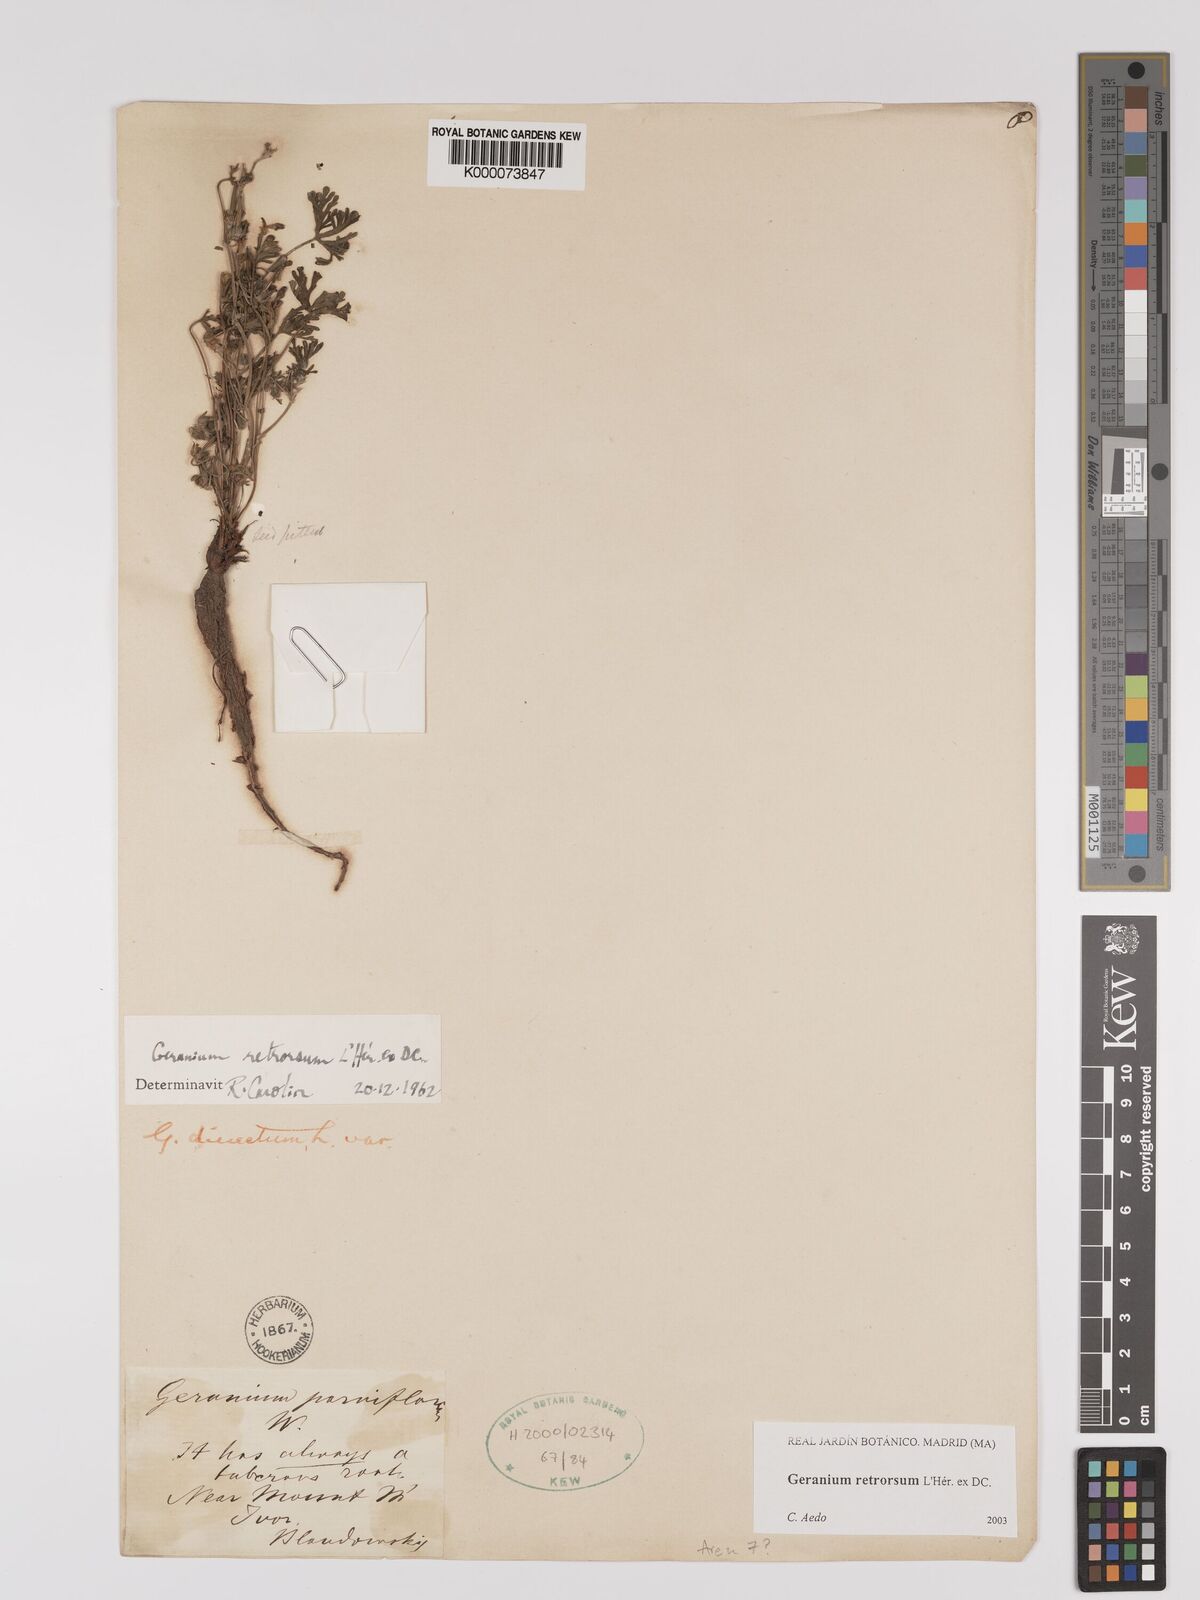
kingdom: Plantae
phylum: Tracheophyta
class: Magnoliopsida
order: Geraniales
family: Geraniaceae
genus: Geranium
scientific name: Geranium retrorsum
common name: New zealand geranium
